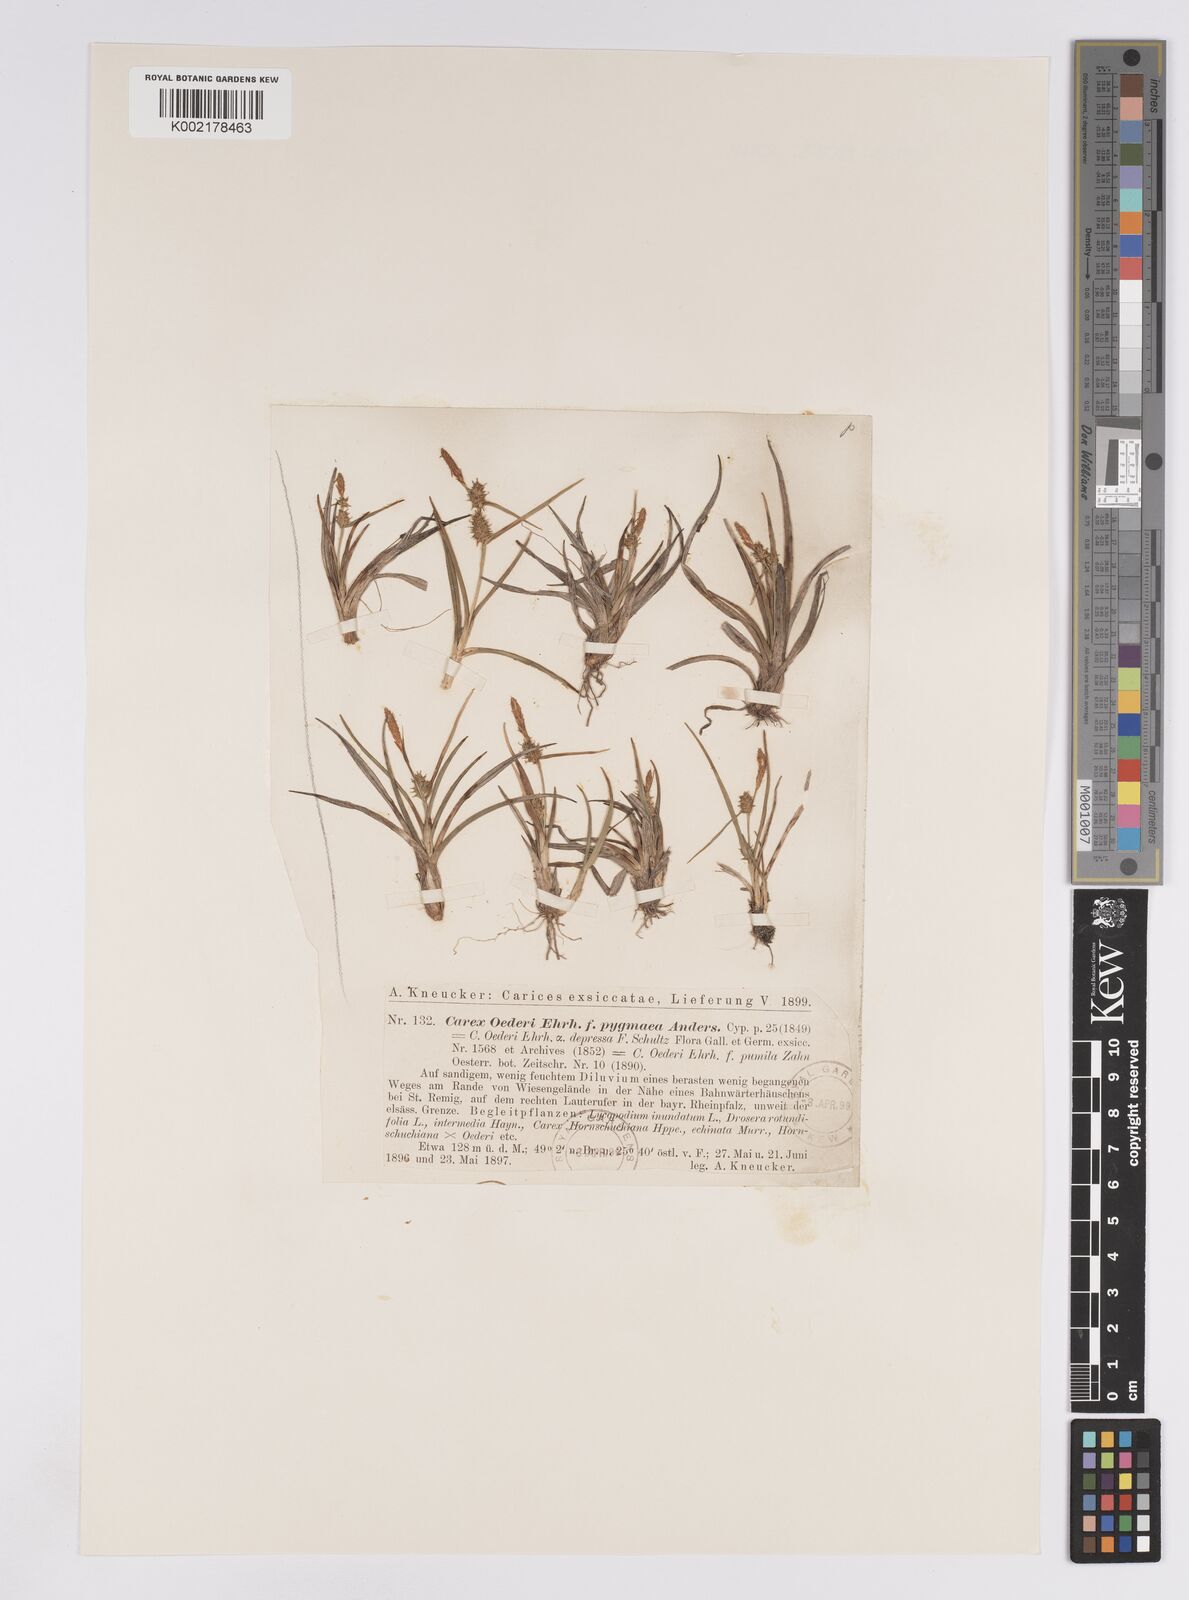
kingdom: Plantae
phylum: Tracheophyta
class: Liliopsida
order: Poales
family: Cyperaceae
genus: Carex
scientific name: Carex demissa
